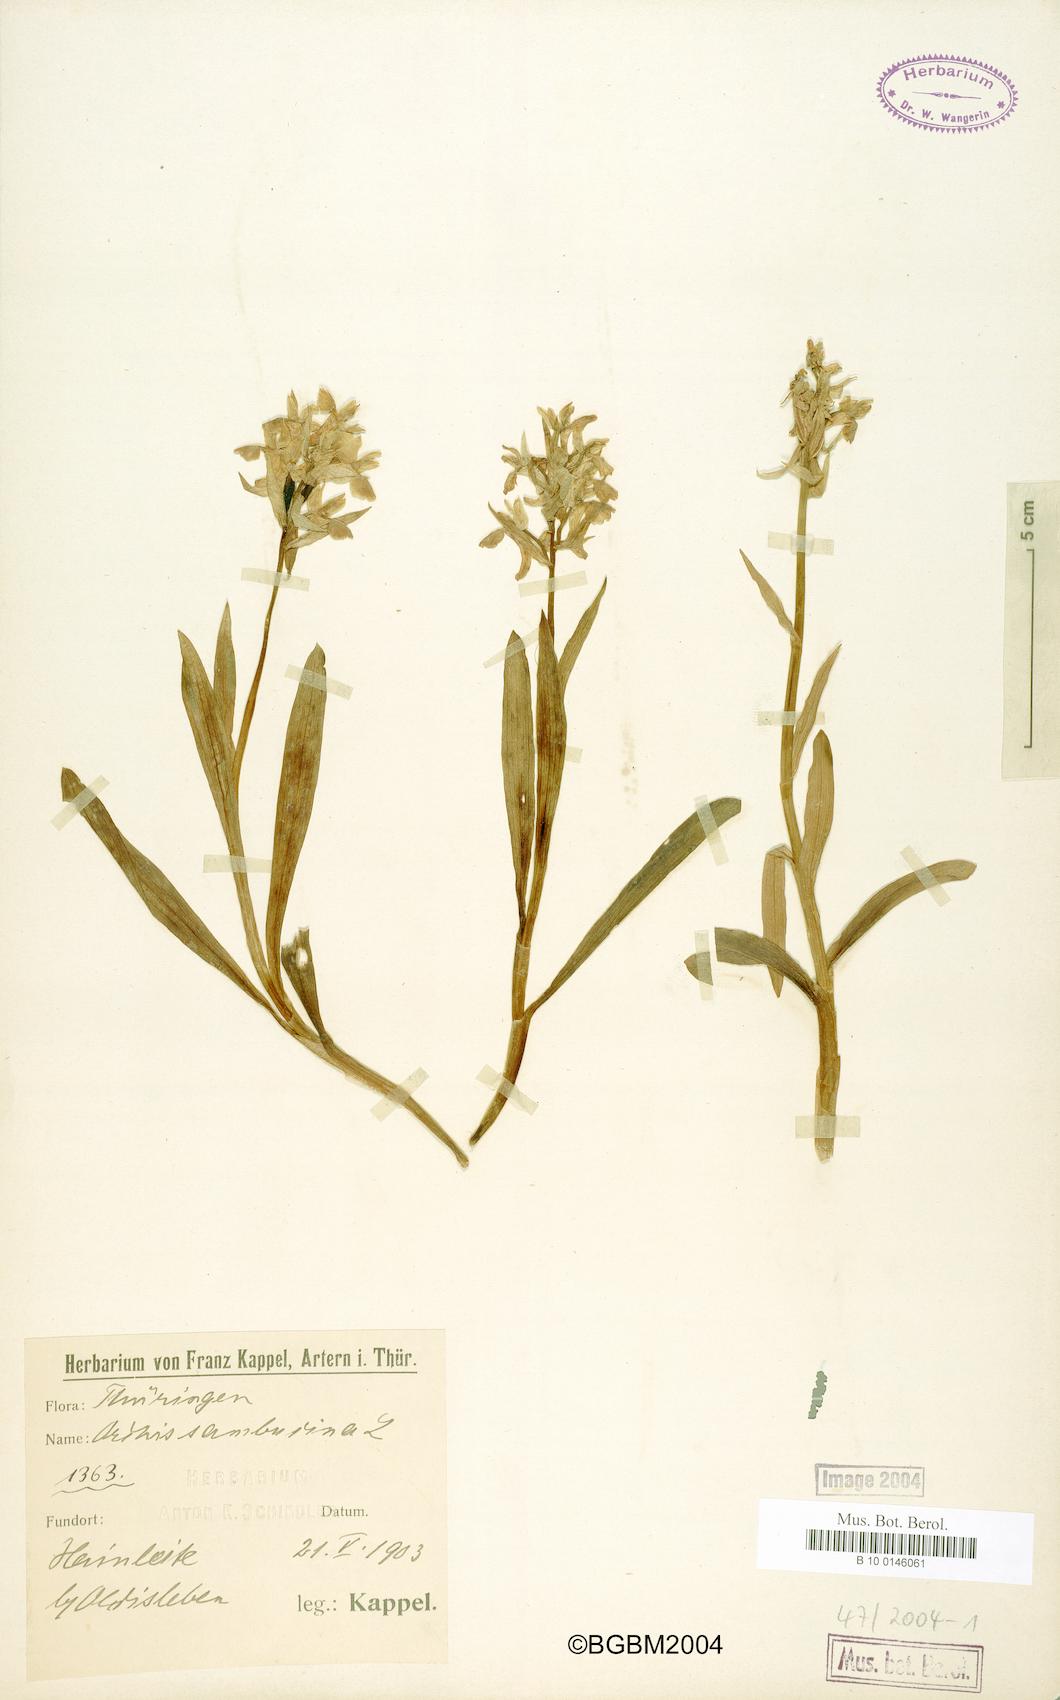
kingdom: Plantae
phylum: Tracheophyta
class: Liliopsida
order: Asparagales
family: Orchidaceae
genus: Dactylorhiza
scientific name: Dactylorhiza sambucina
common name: Elder-flowered orchid
